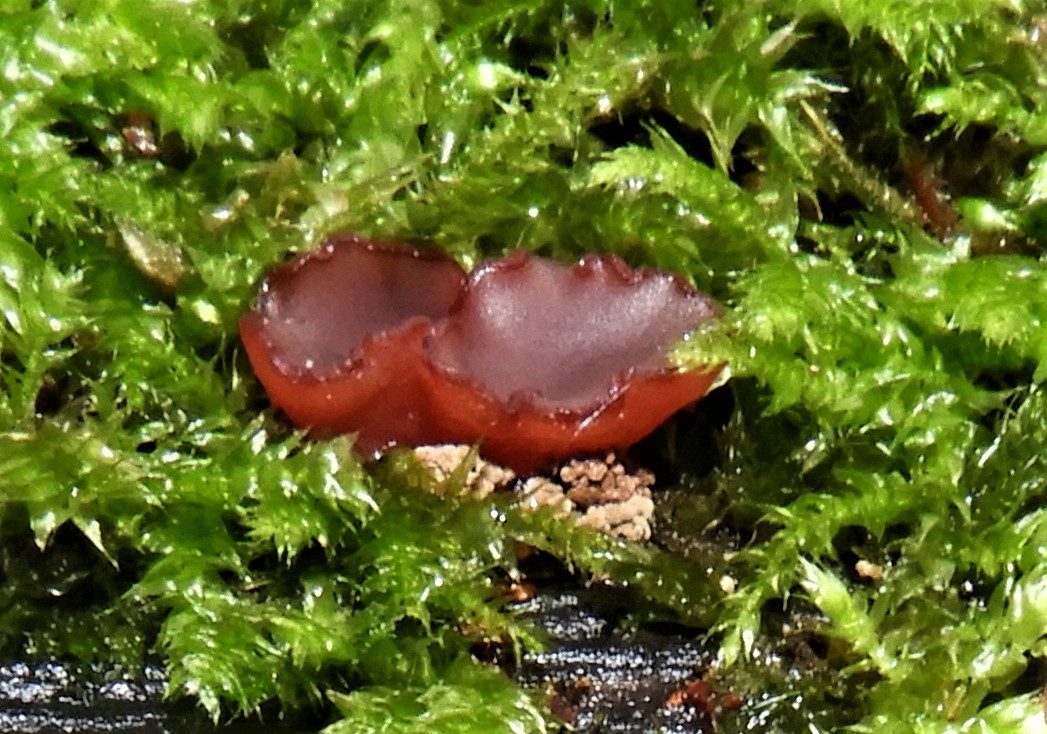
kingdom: Fungi
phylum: Ascomycota
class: Leotiomycetes
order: Helotiales
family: Gelatinodiscaceae
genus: Ascocoryne
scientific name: Ascocoryne cylichnium
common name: stor sejskive
